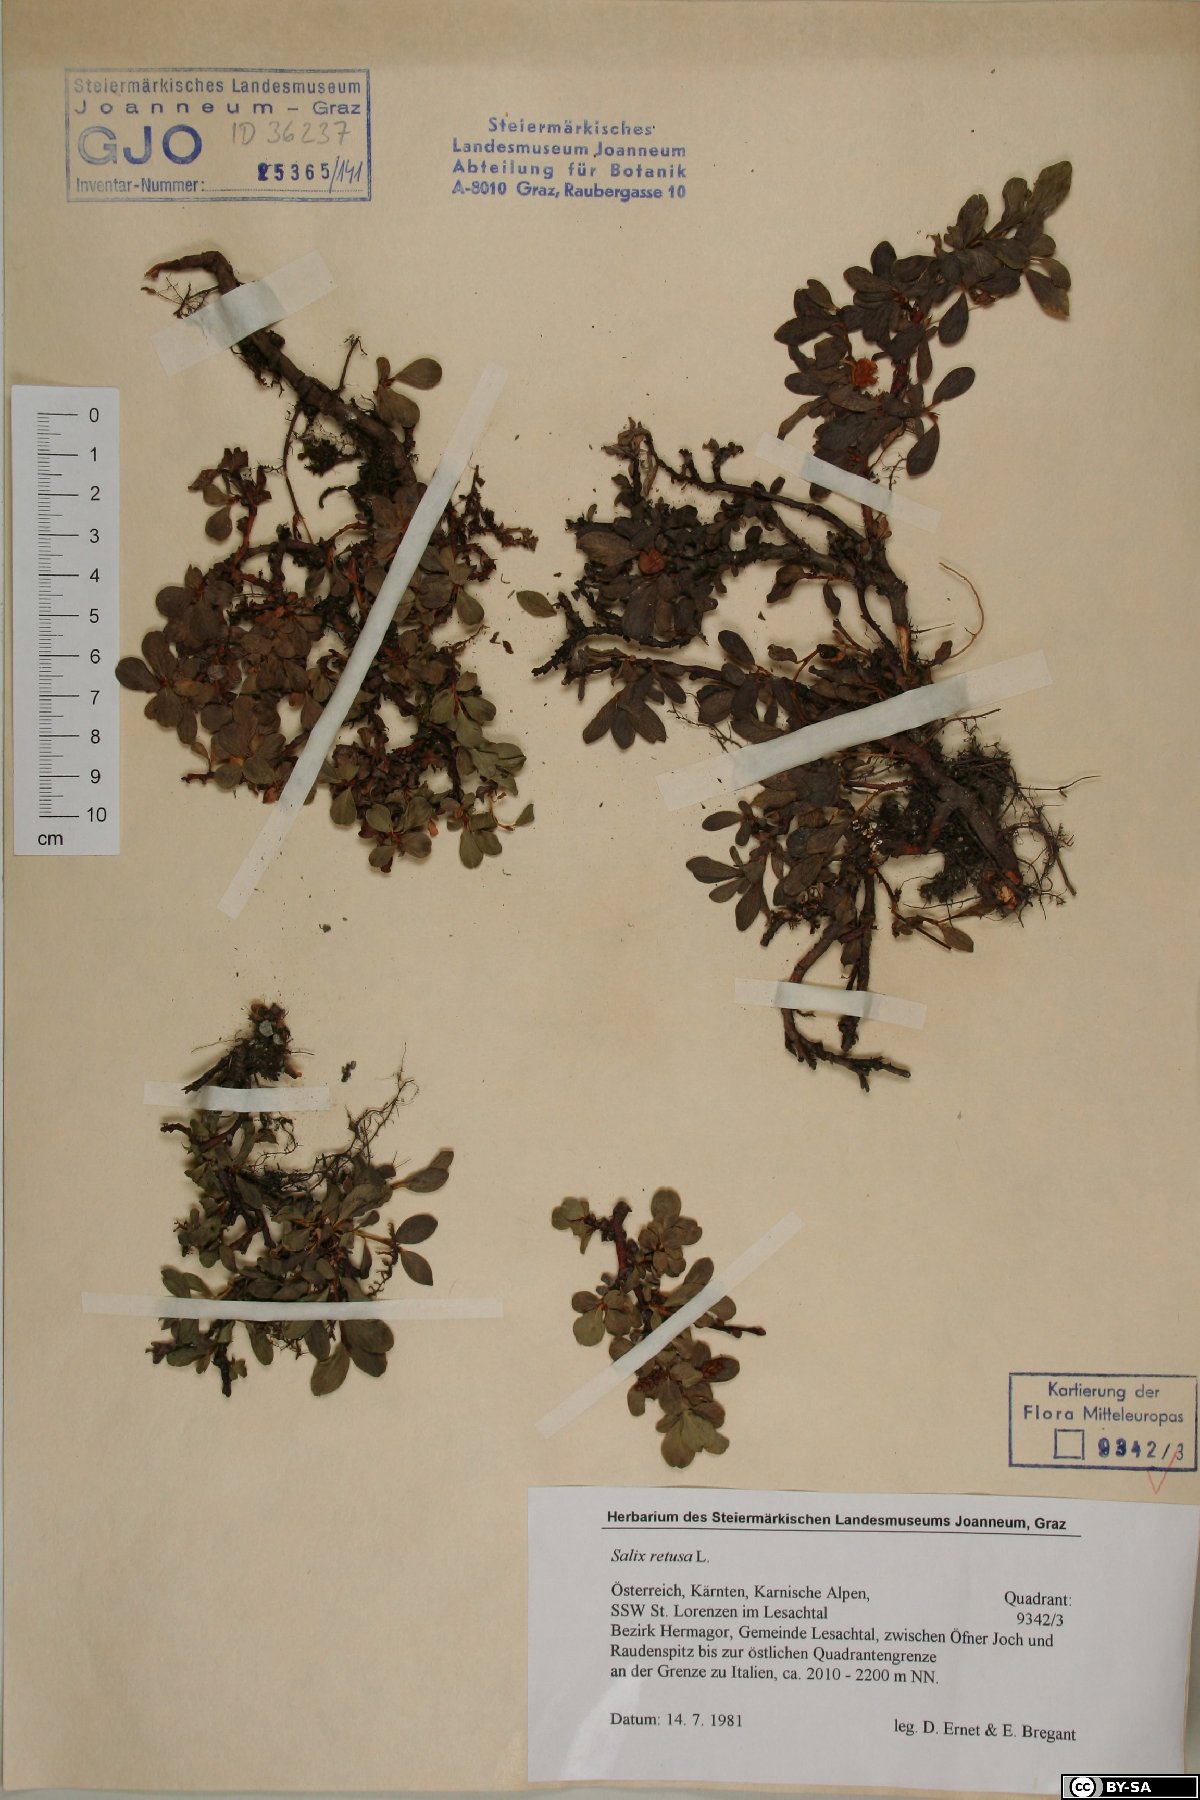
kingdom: Plantae
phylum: Tracheophyta
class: Magnoliopsida
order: Malpighiales
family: Salicaceae
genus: Salix
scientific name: Salix retusa
